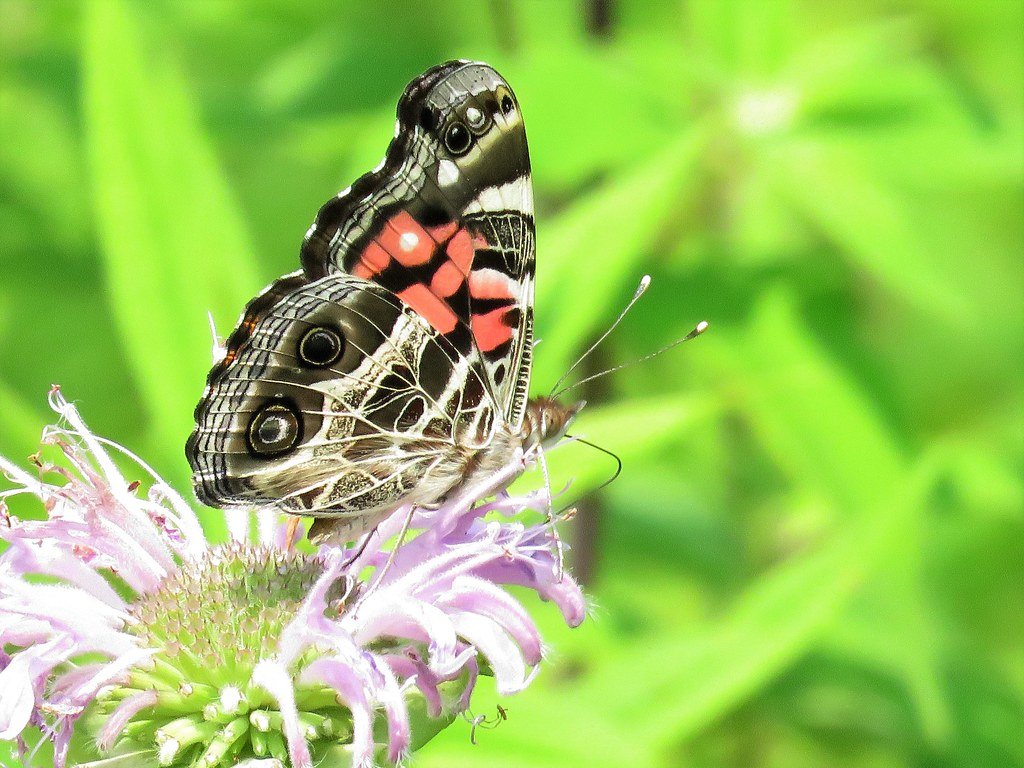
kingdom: Animalia
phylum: Arthropoda
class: Insecta
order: Lepidoptera
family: Nymphalidae
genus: Vanessa
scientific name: Vanessa virginiensis
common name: American Lady
